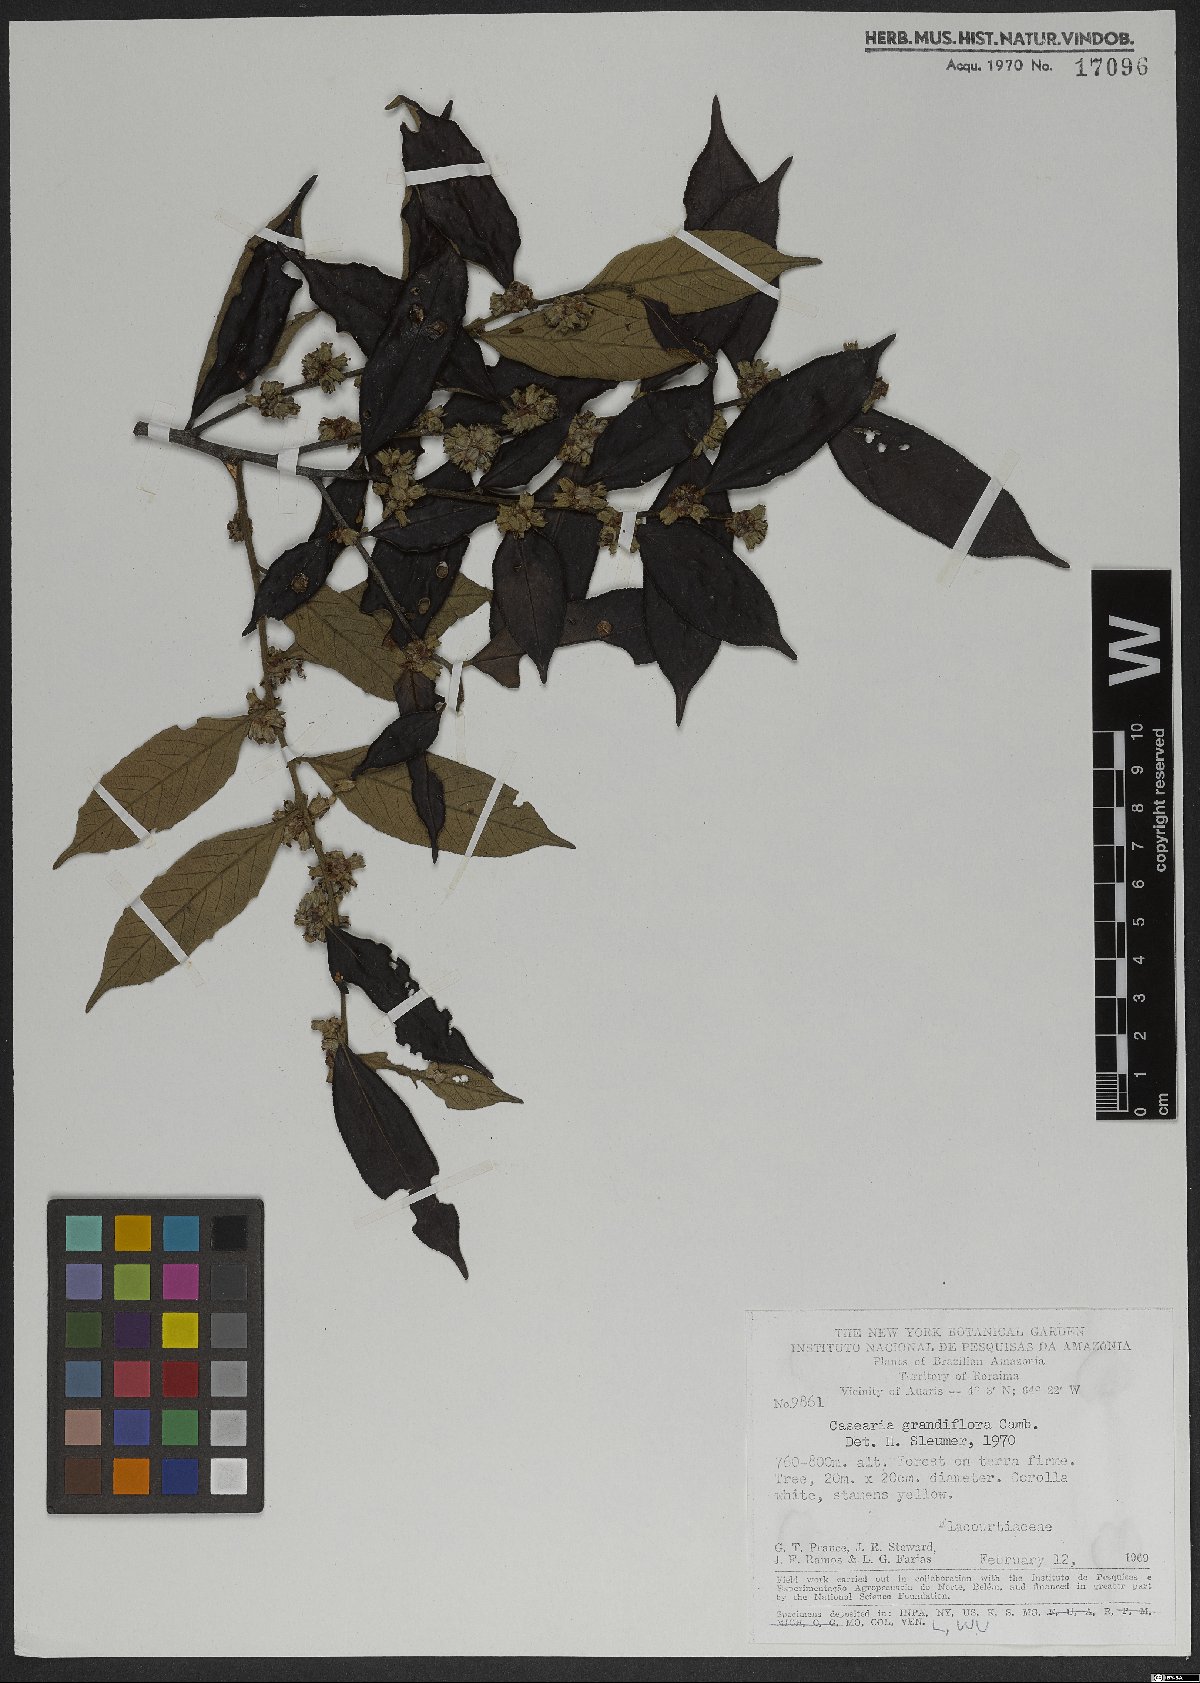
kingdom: Plantae
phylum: Tracheophyta
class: Magnoliopsida
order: Malpighiales
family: Salicaceae
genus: Casearia
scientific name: Casearia grandiflora
